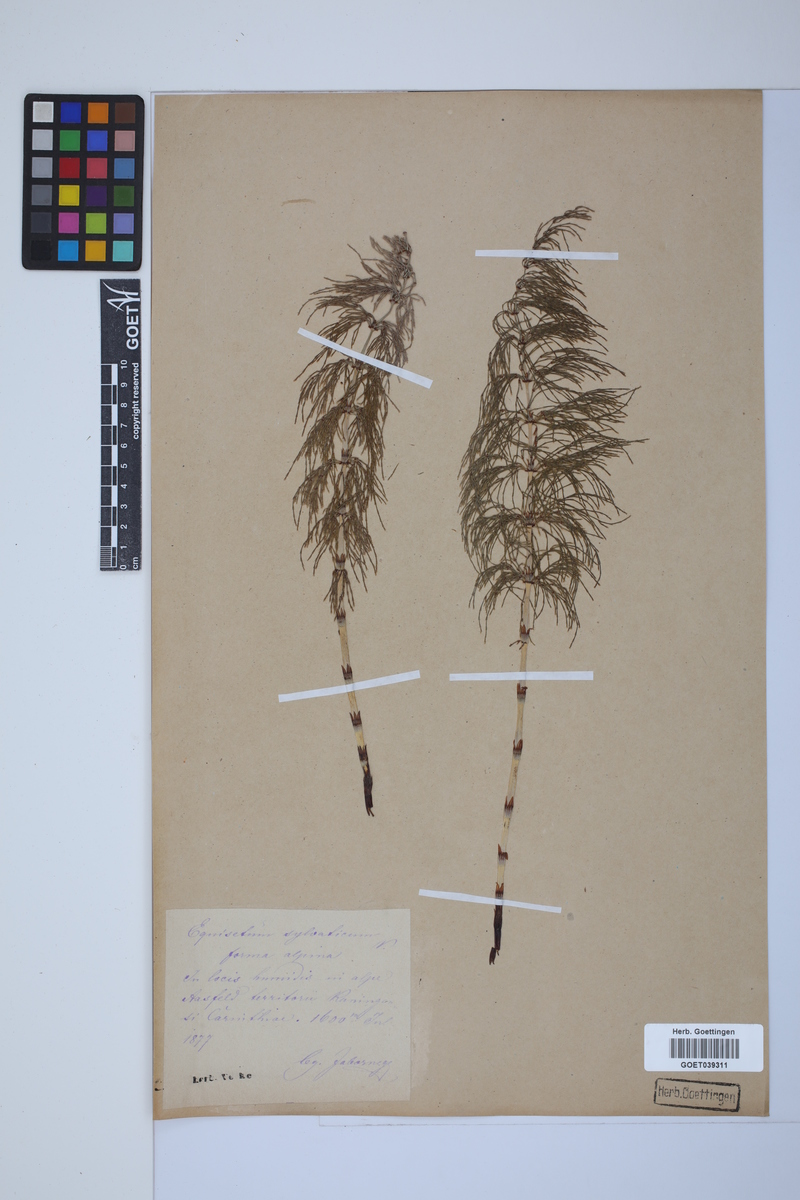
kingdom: Plantae
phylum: Tracheophyta
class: Polypodiopsida
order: Equisetales
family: Equisetaceae
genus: Equisetum
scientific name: Equisetum sylvaticum
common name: Wood horsetail
